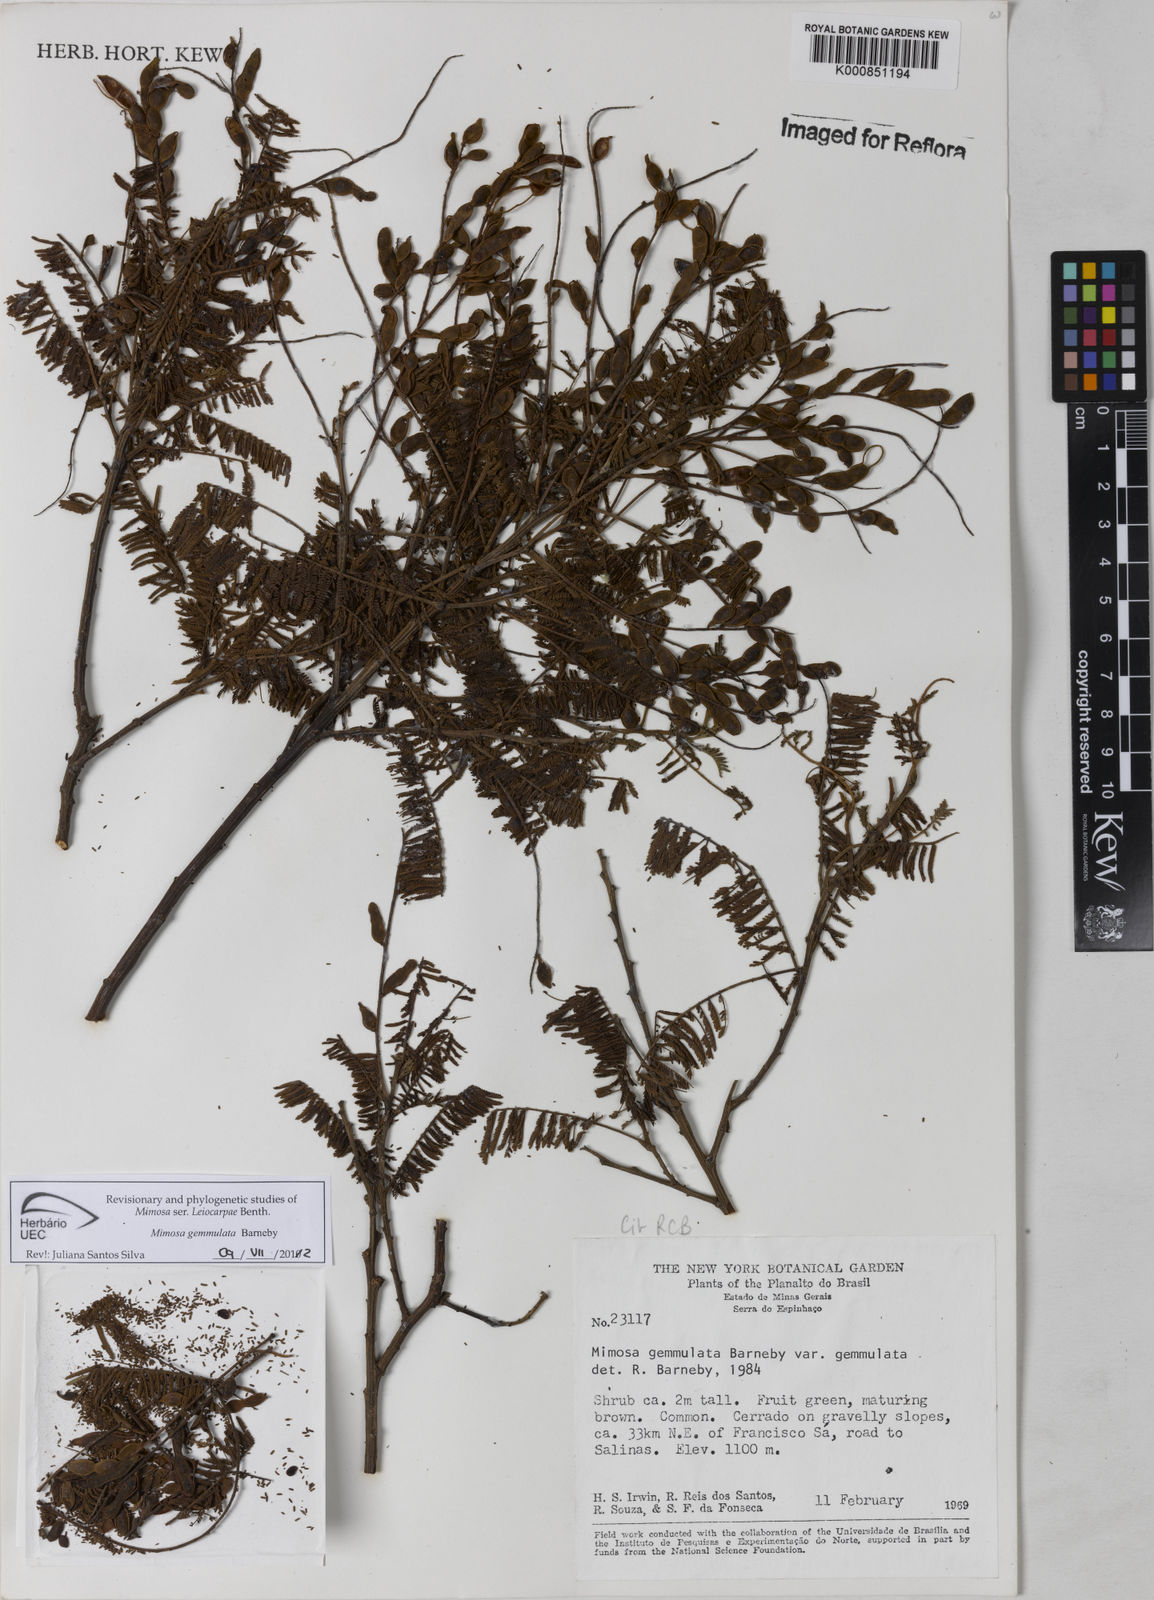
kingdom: Plantae
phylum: Tracheophyta
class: Magnoliopsida
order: Fabales
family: Fabaceae
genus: Mimosa
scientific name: Mimosa gemmulata
